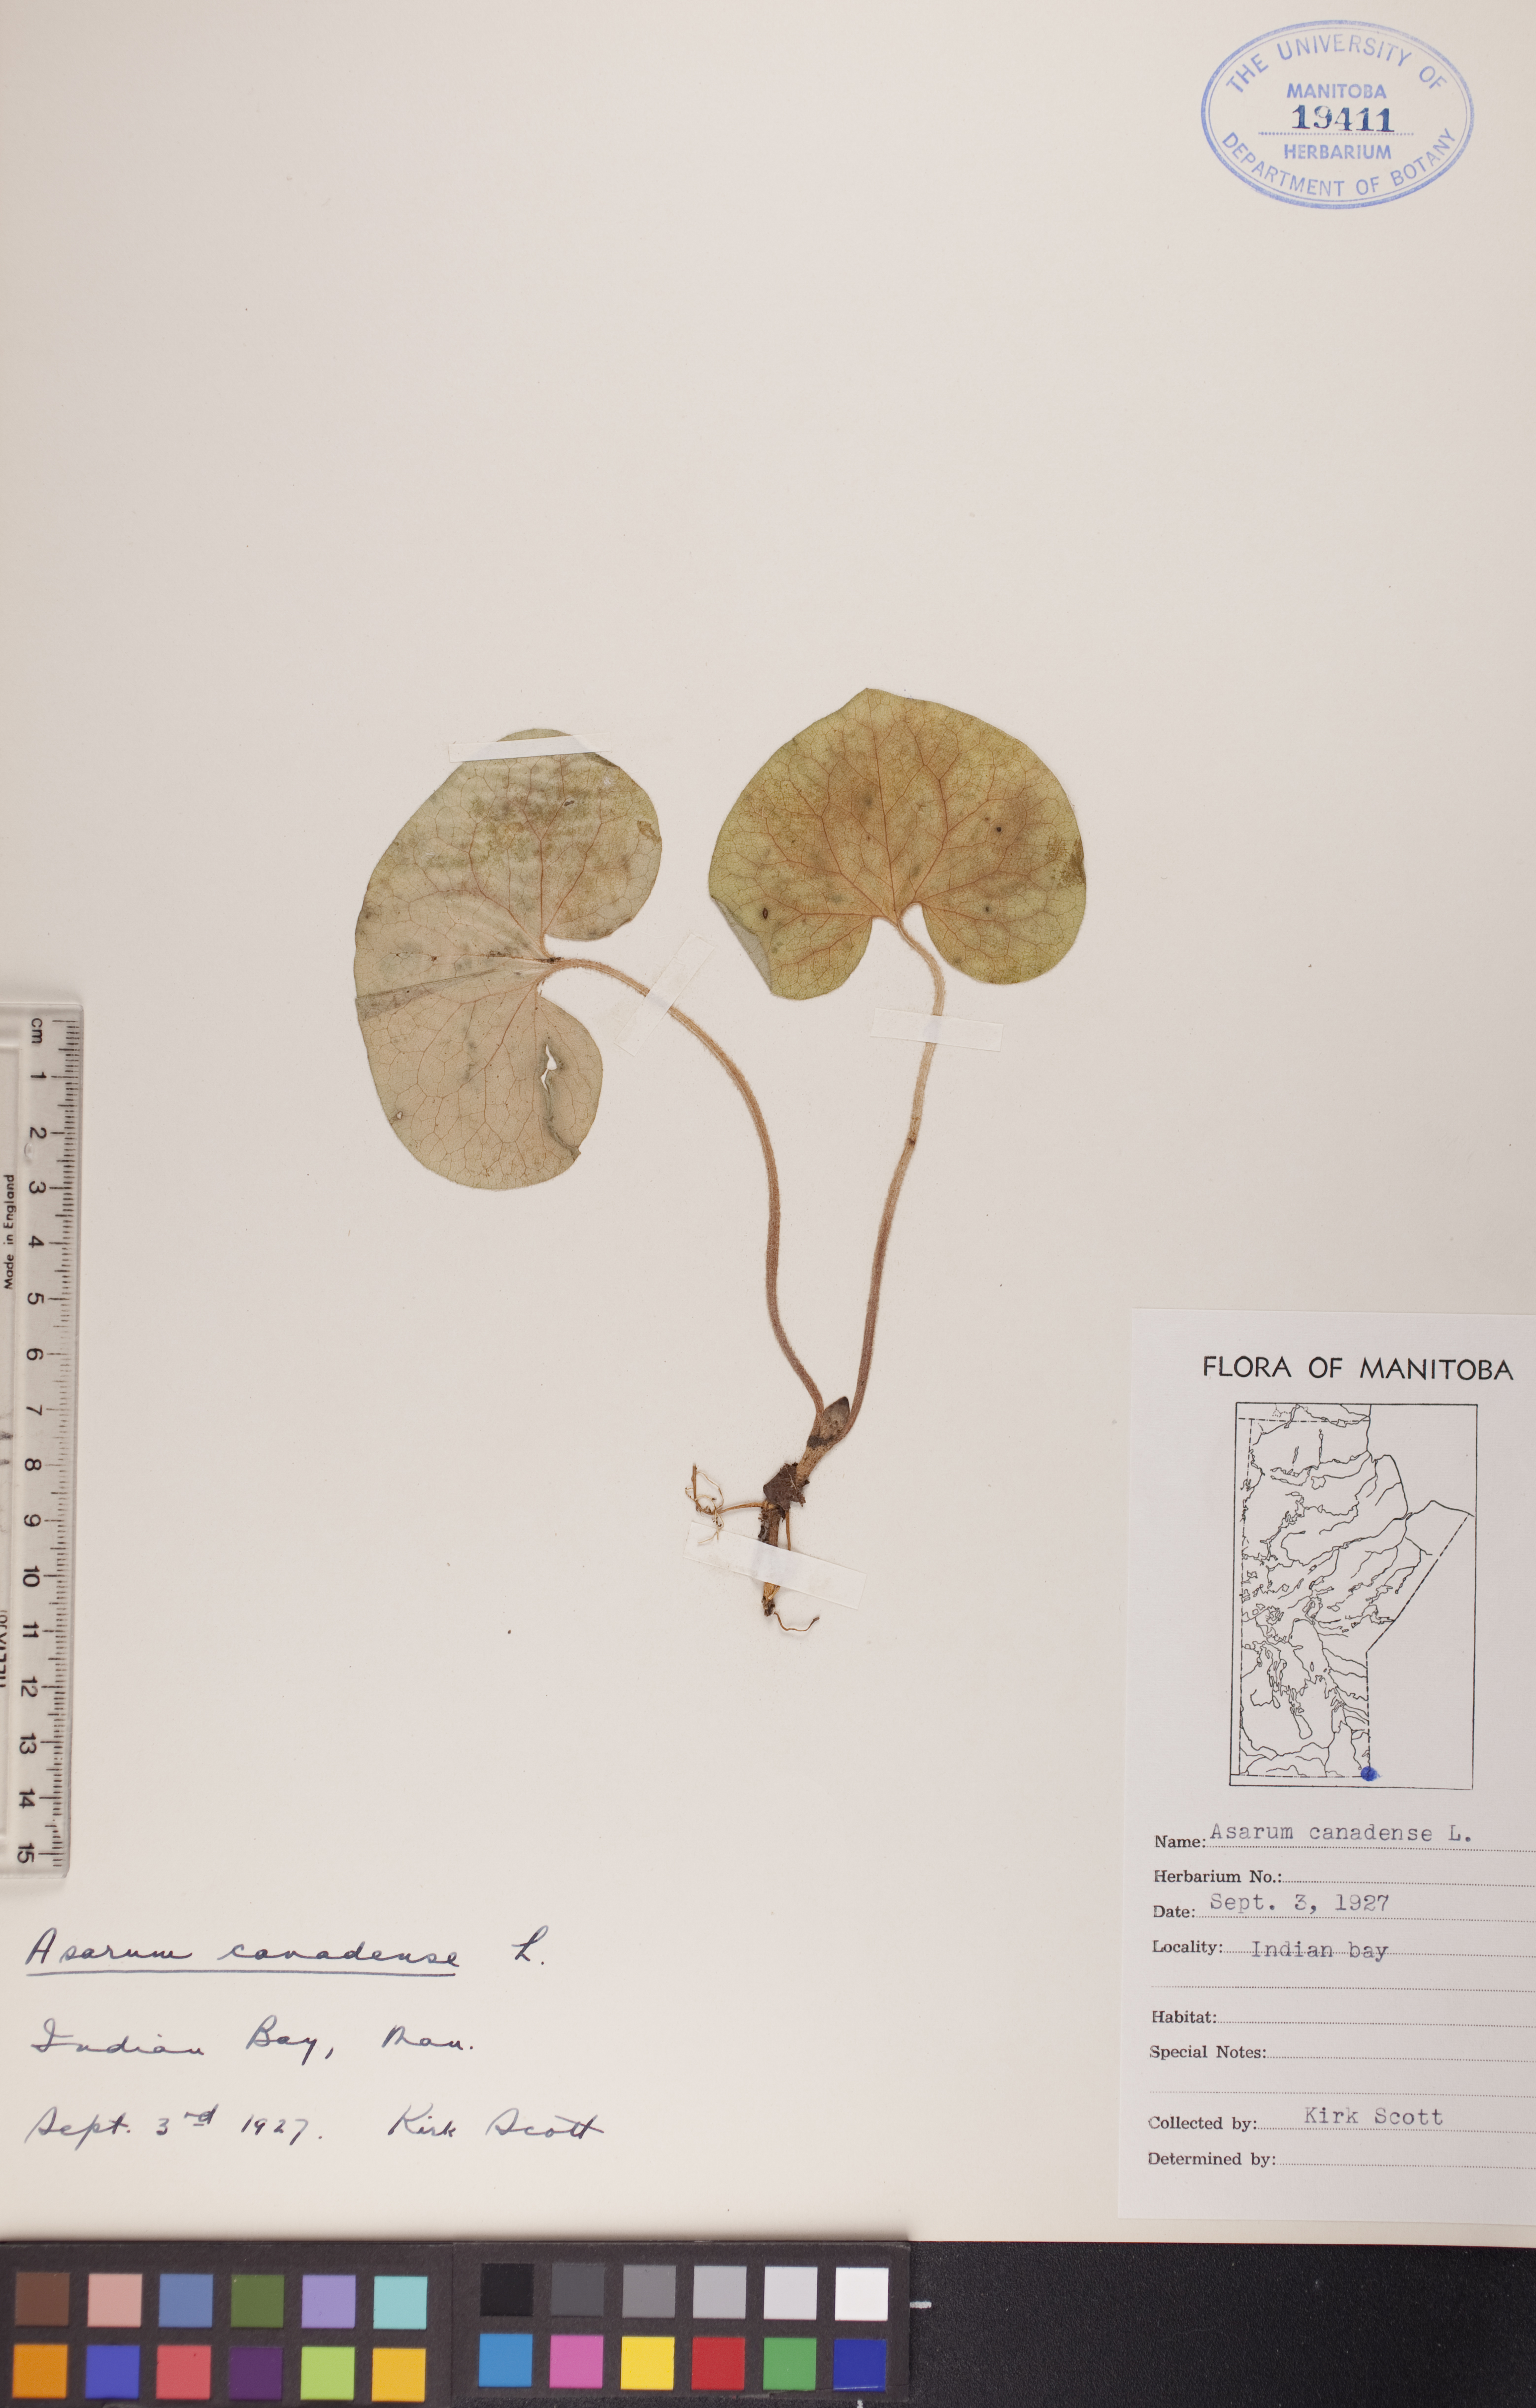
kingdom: Plantae
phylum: Tracheophyta
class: Magnoliopsida
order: Piperales
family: Aristolochiaceae
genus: Asarum
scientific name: Asarum canadense
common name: Wild ginger
